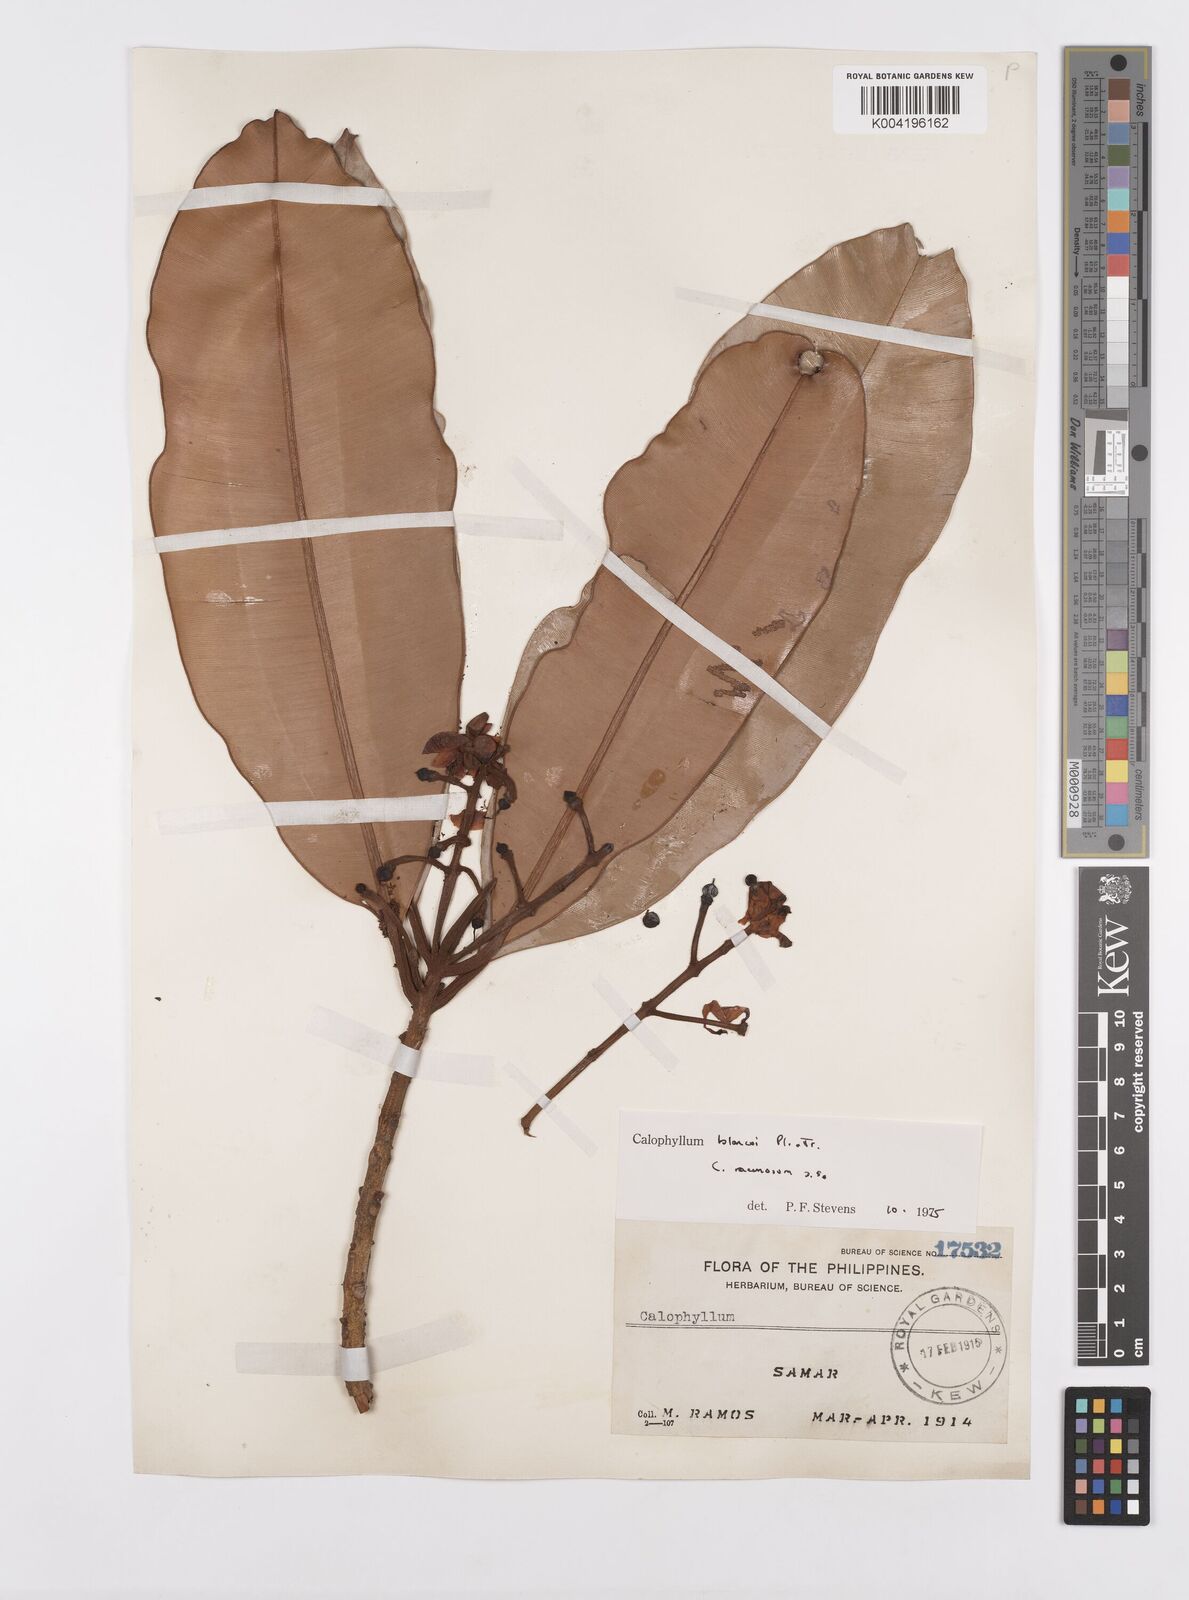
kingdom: Plantae
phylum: Tracheophyta
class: Magnoliopsida
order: Malpighiales
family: Calophyllaceae
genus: Calophyllum
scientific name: Calophyllum blancoi
